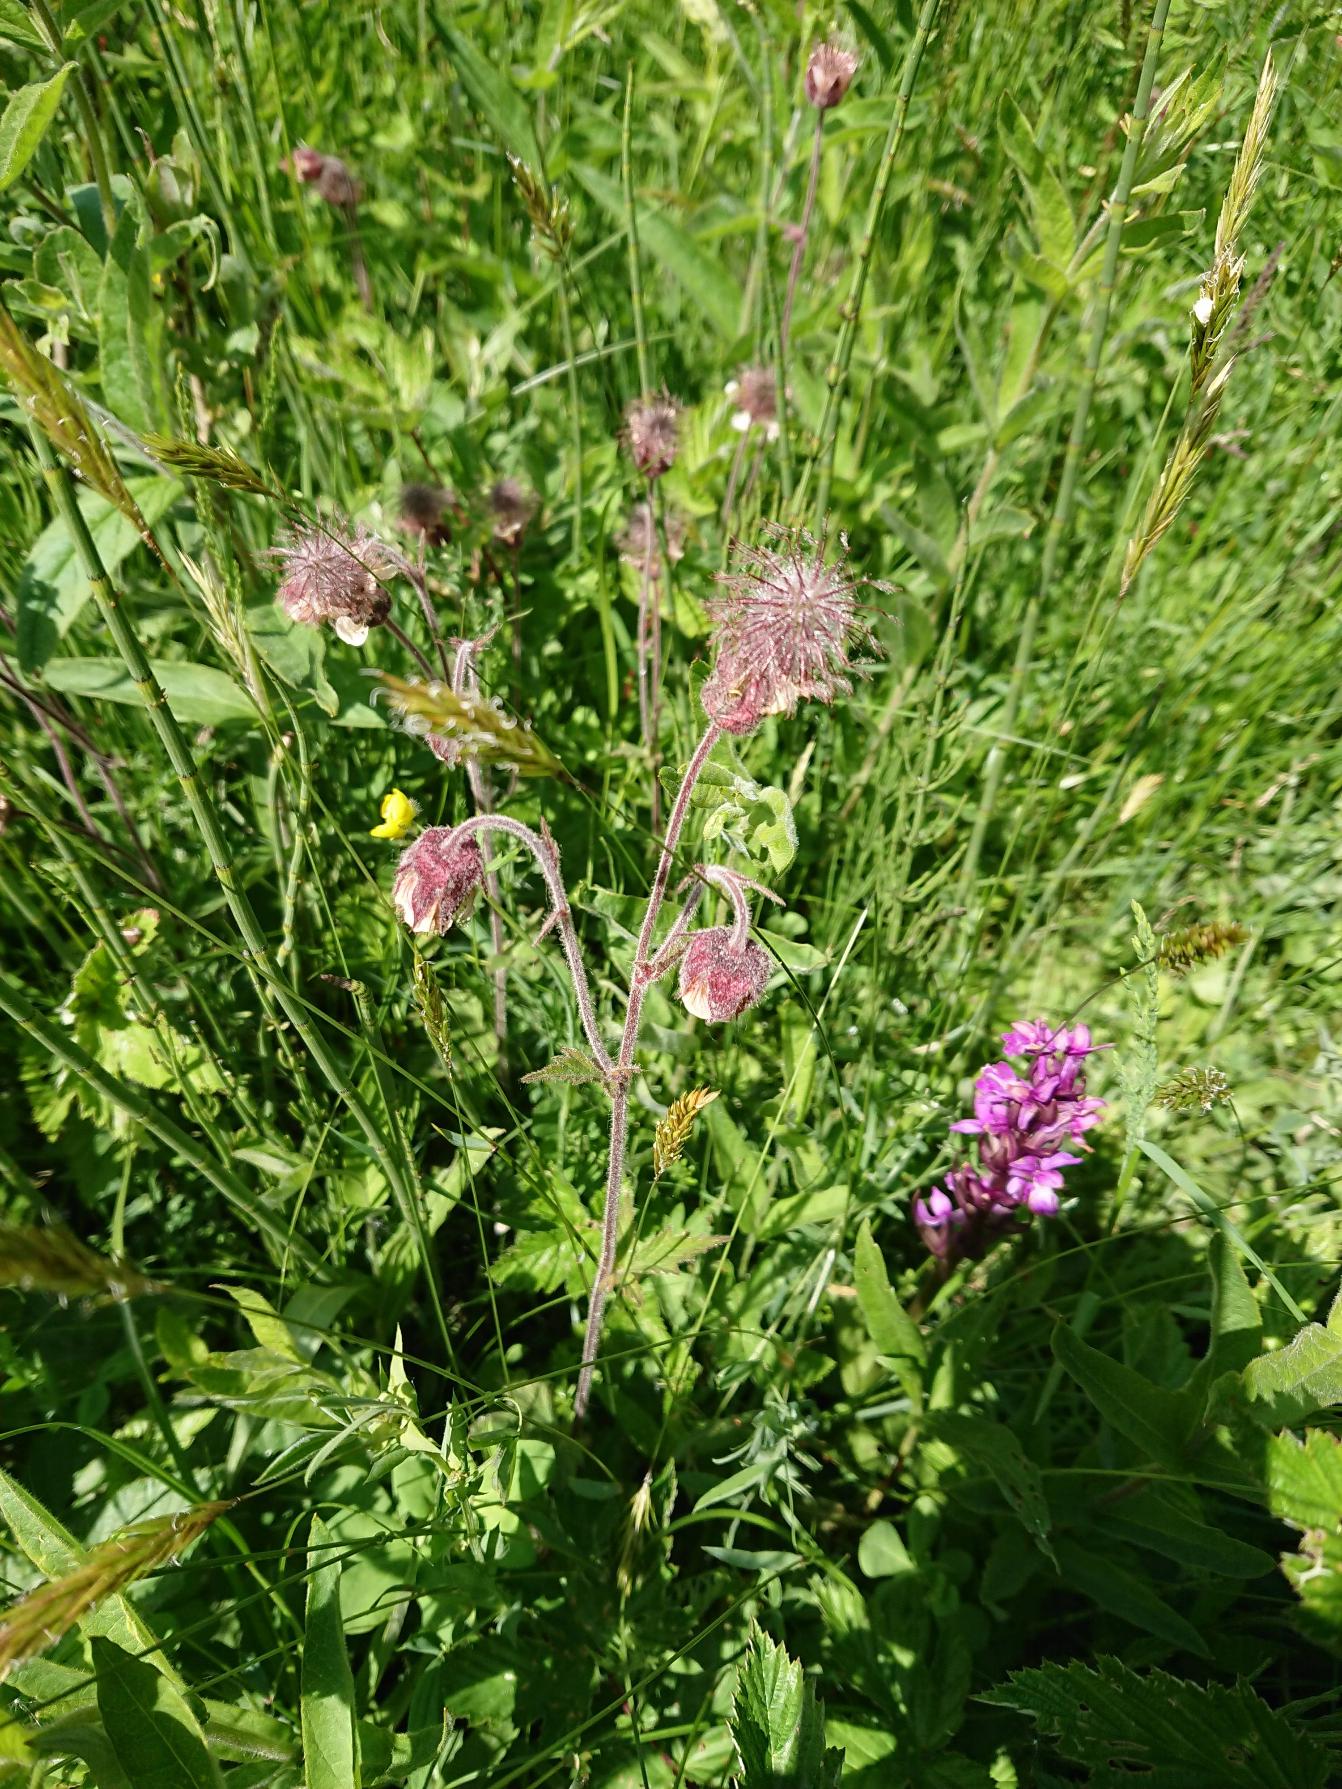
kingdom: Plantae
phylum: Tracheophyta
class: Magnoliopsida
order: Rosales
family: Rosaceae
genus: Geum
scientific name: Geum rivale
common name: Eng-nellikerod
